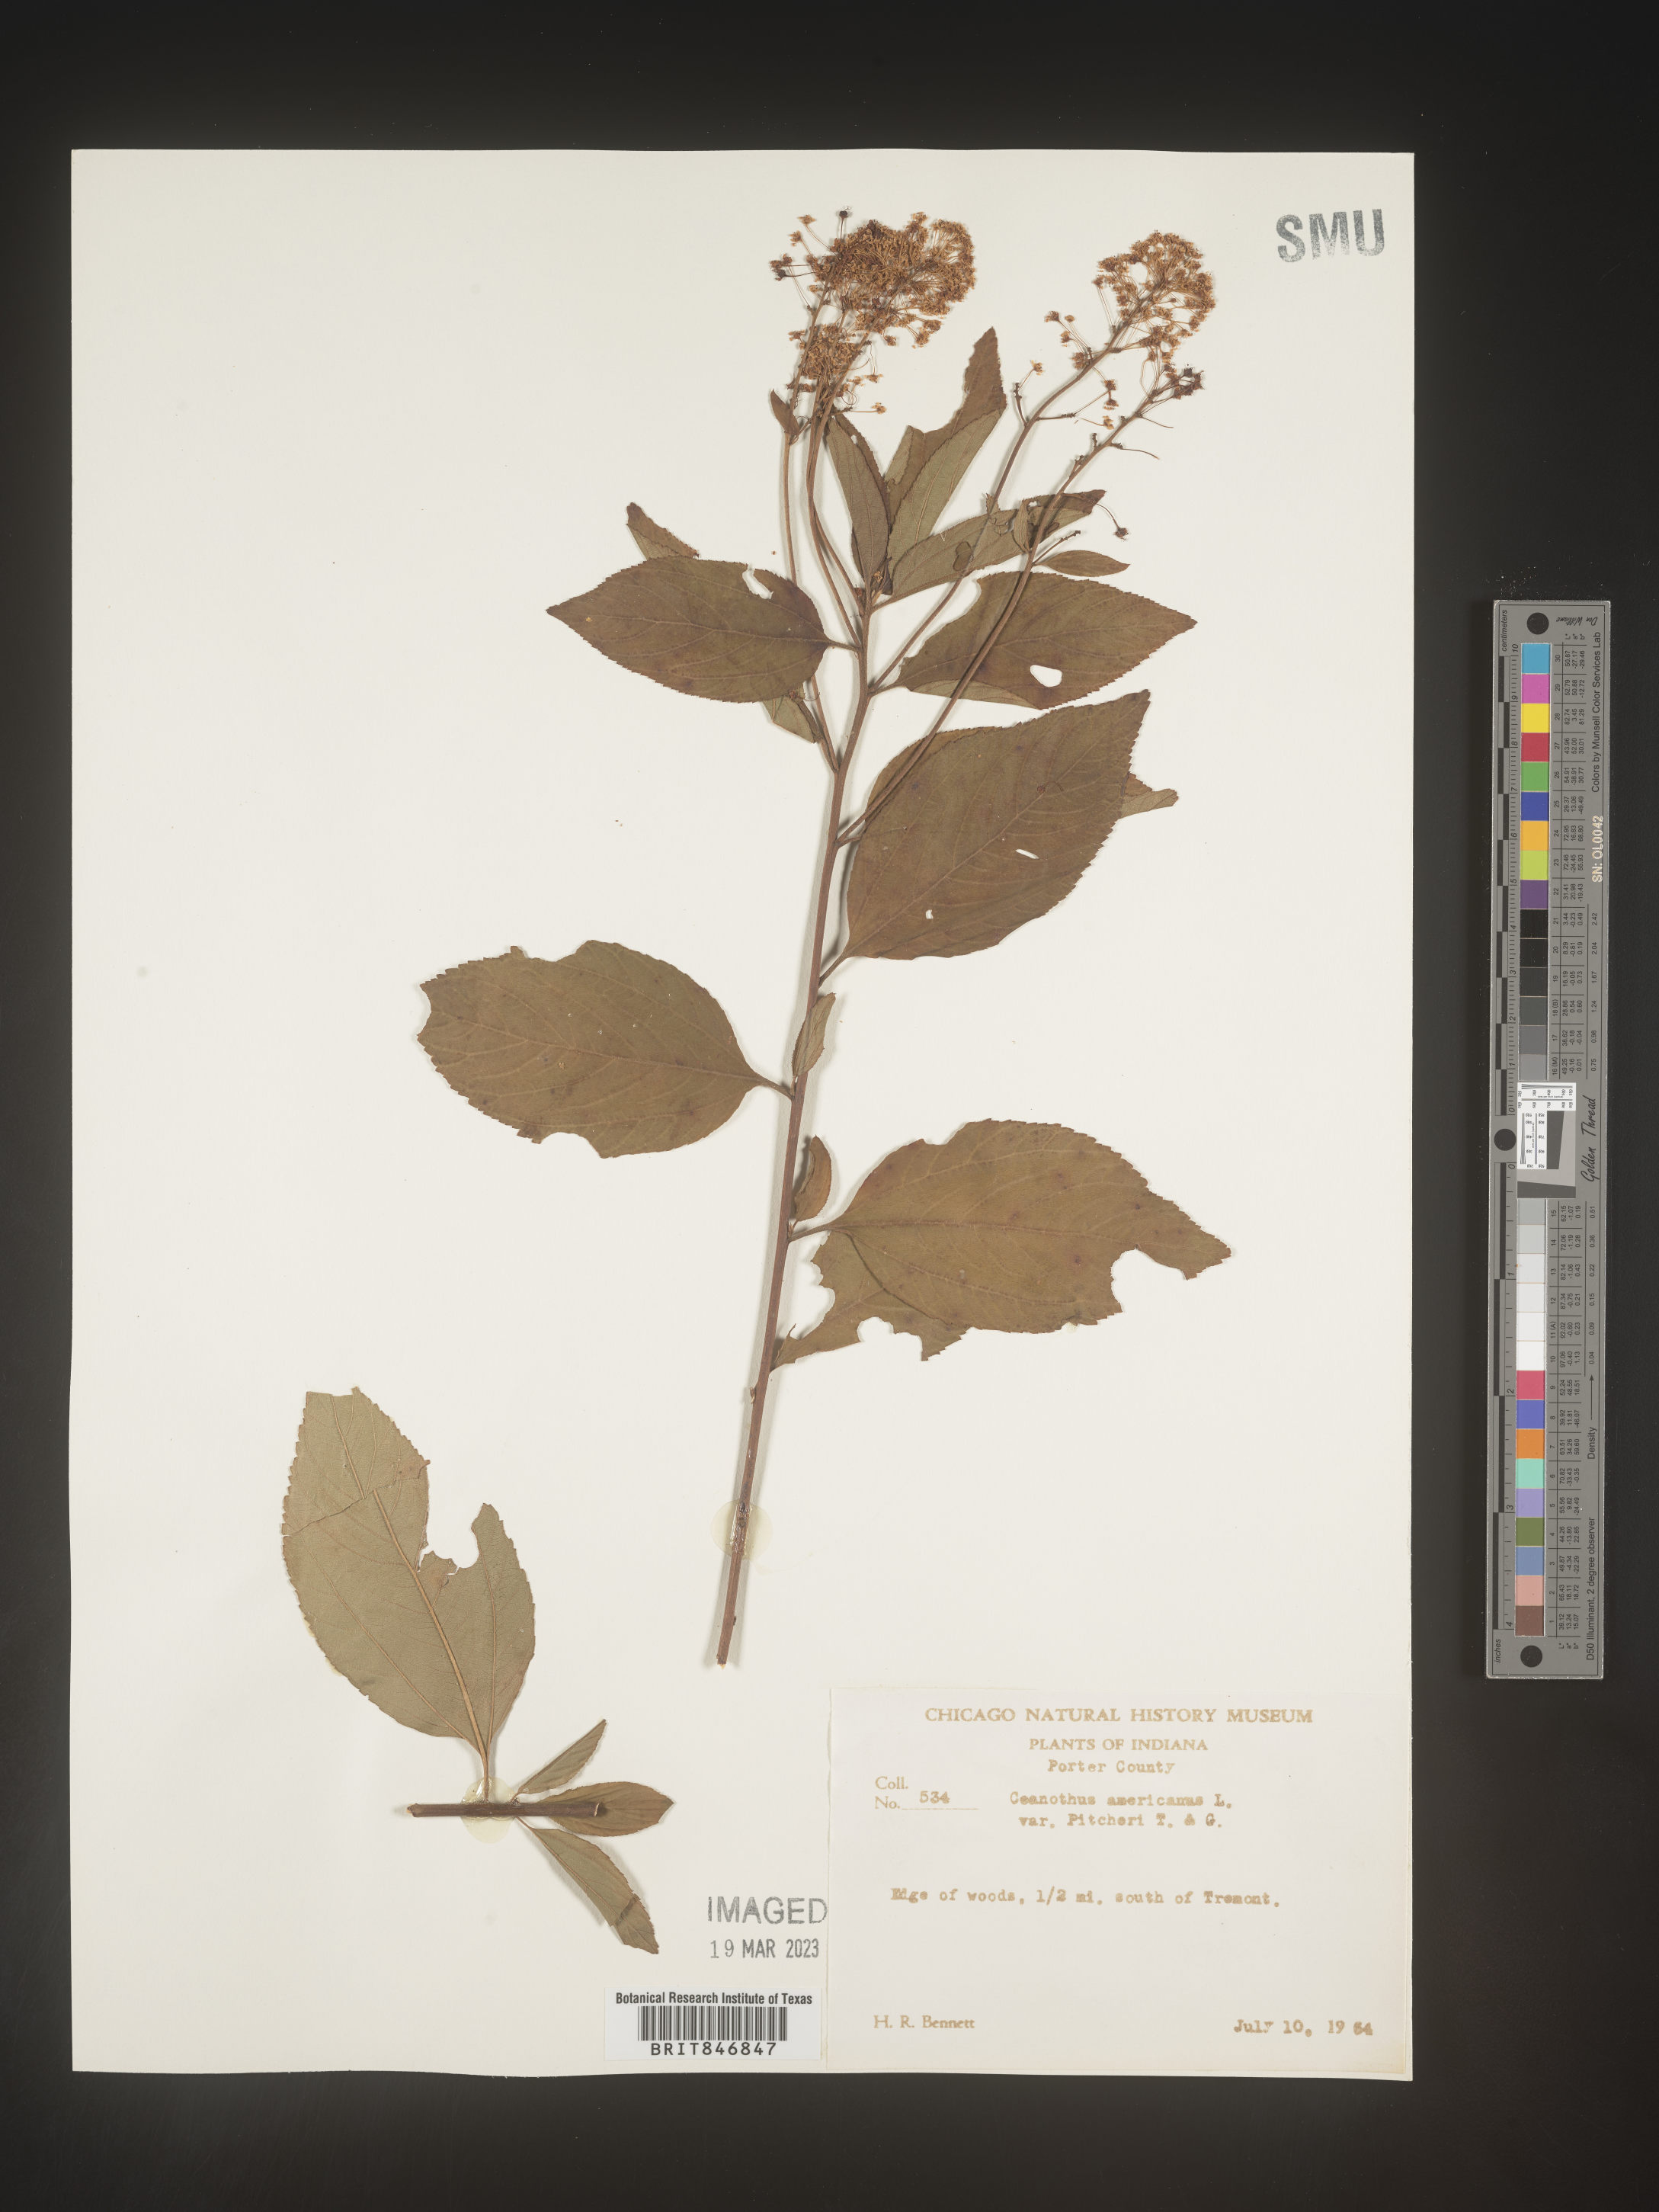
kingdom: Plantae
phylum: Tracheophyta
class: Magnoliopsida
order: Rosales
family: Rhamnaceae
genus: Ceanothus
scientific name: Ceanothus americanus
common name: Redroot
